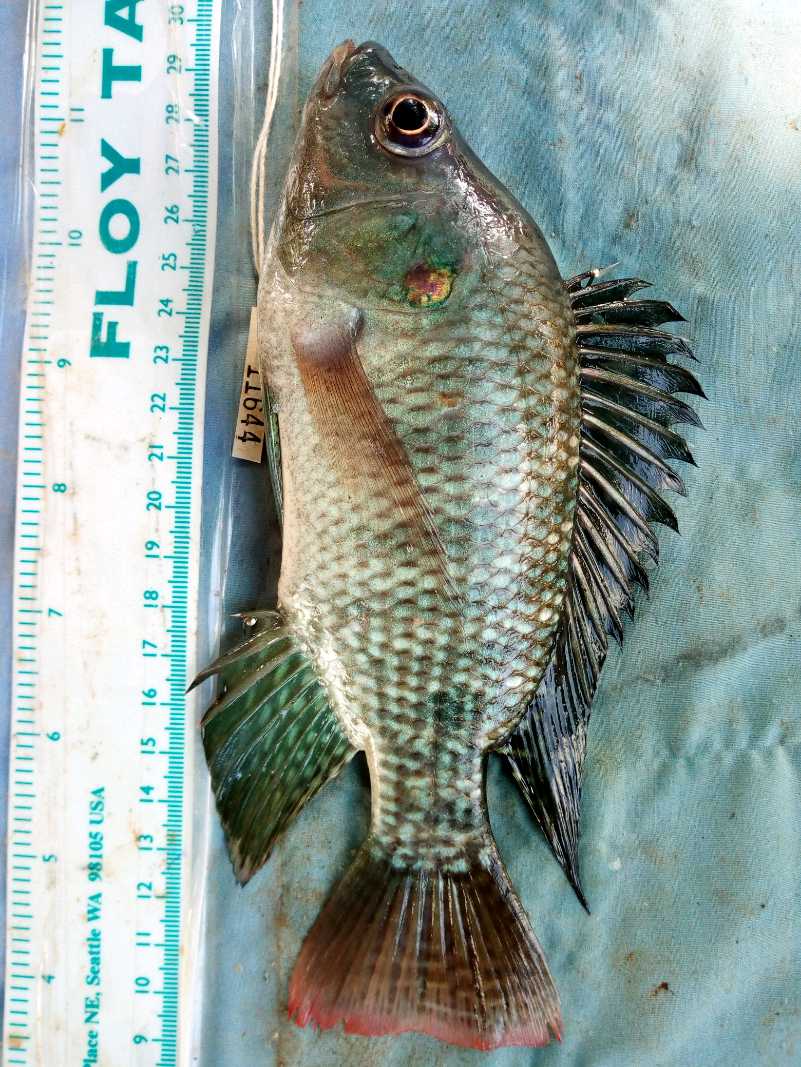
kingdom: Animalia
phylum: Chordata
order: Perciformes
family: Cichlidae
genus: Oreochromis
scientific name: Oreochromis niloticus
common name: Nile tilapia
